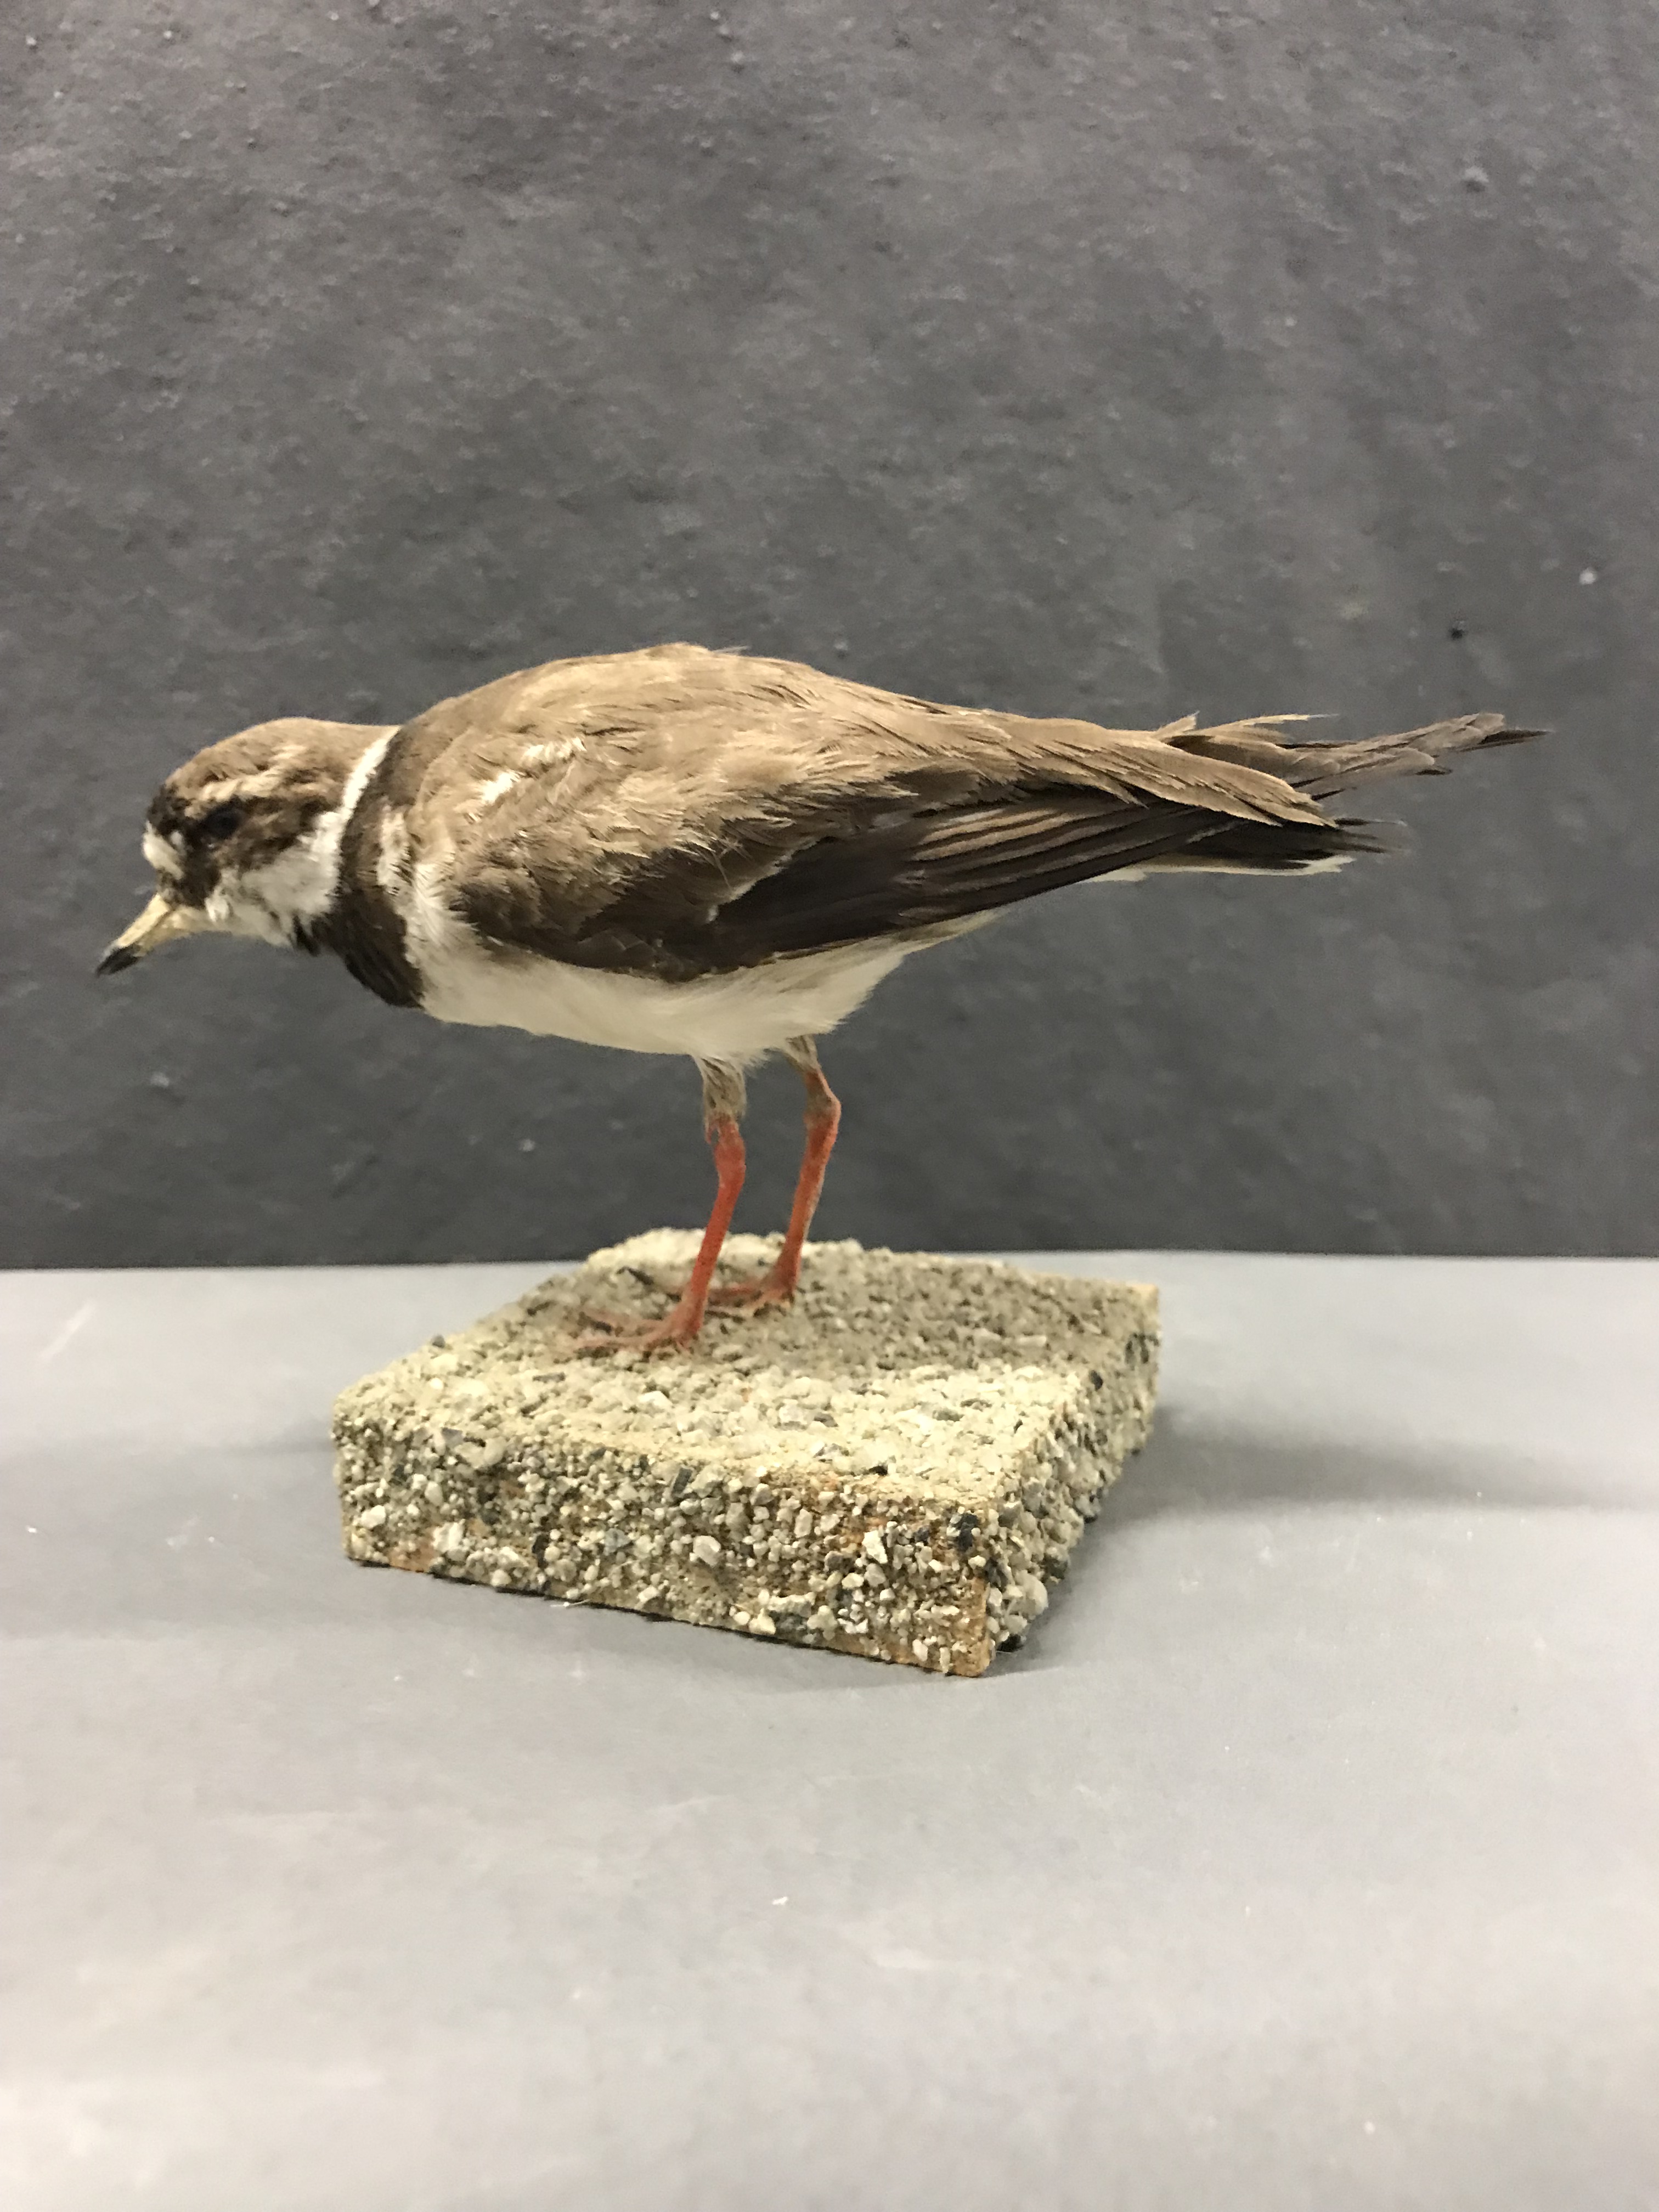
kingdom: Animalia
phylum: Chordata
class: Aves
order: Charadriiformes
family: Charadriidae
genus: Charadrius
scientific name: Charadrius hiaticula
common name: Common ringed plover
